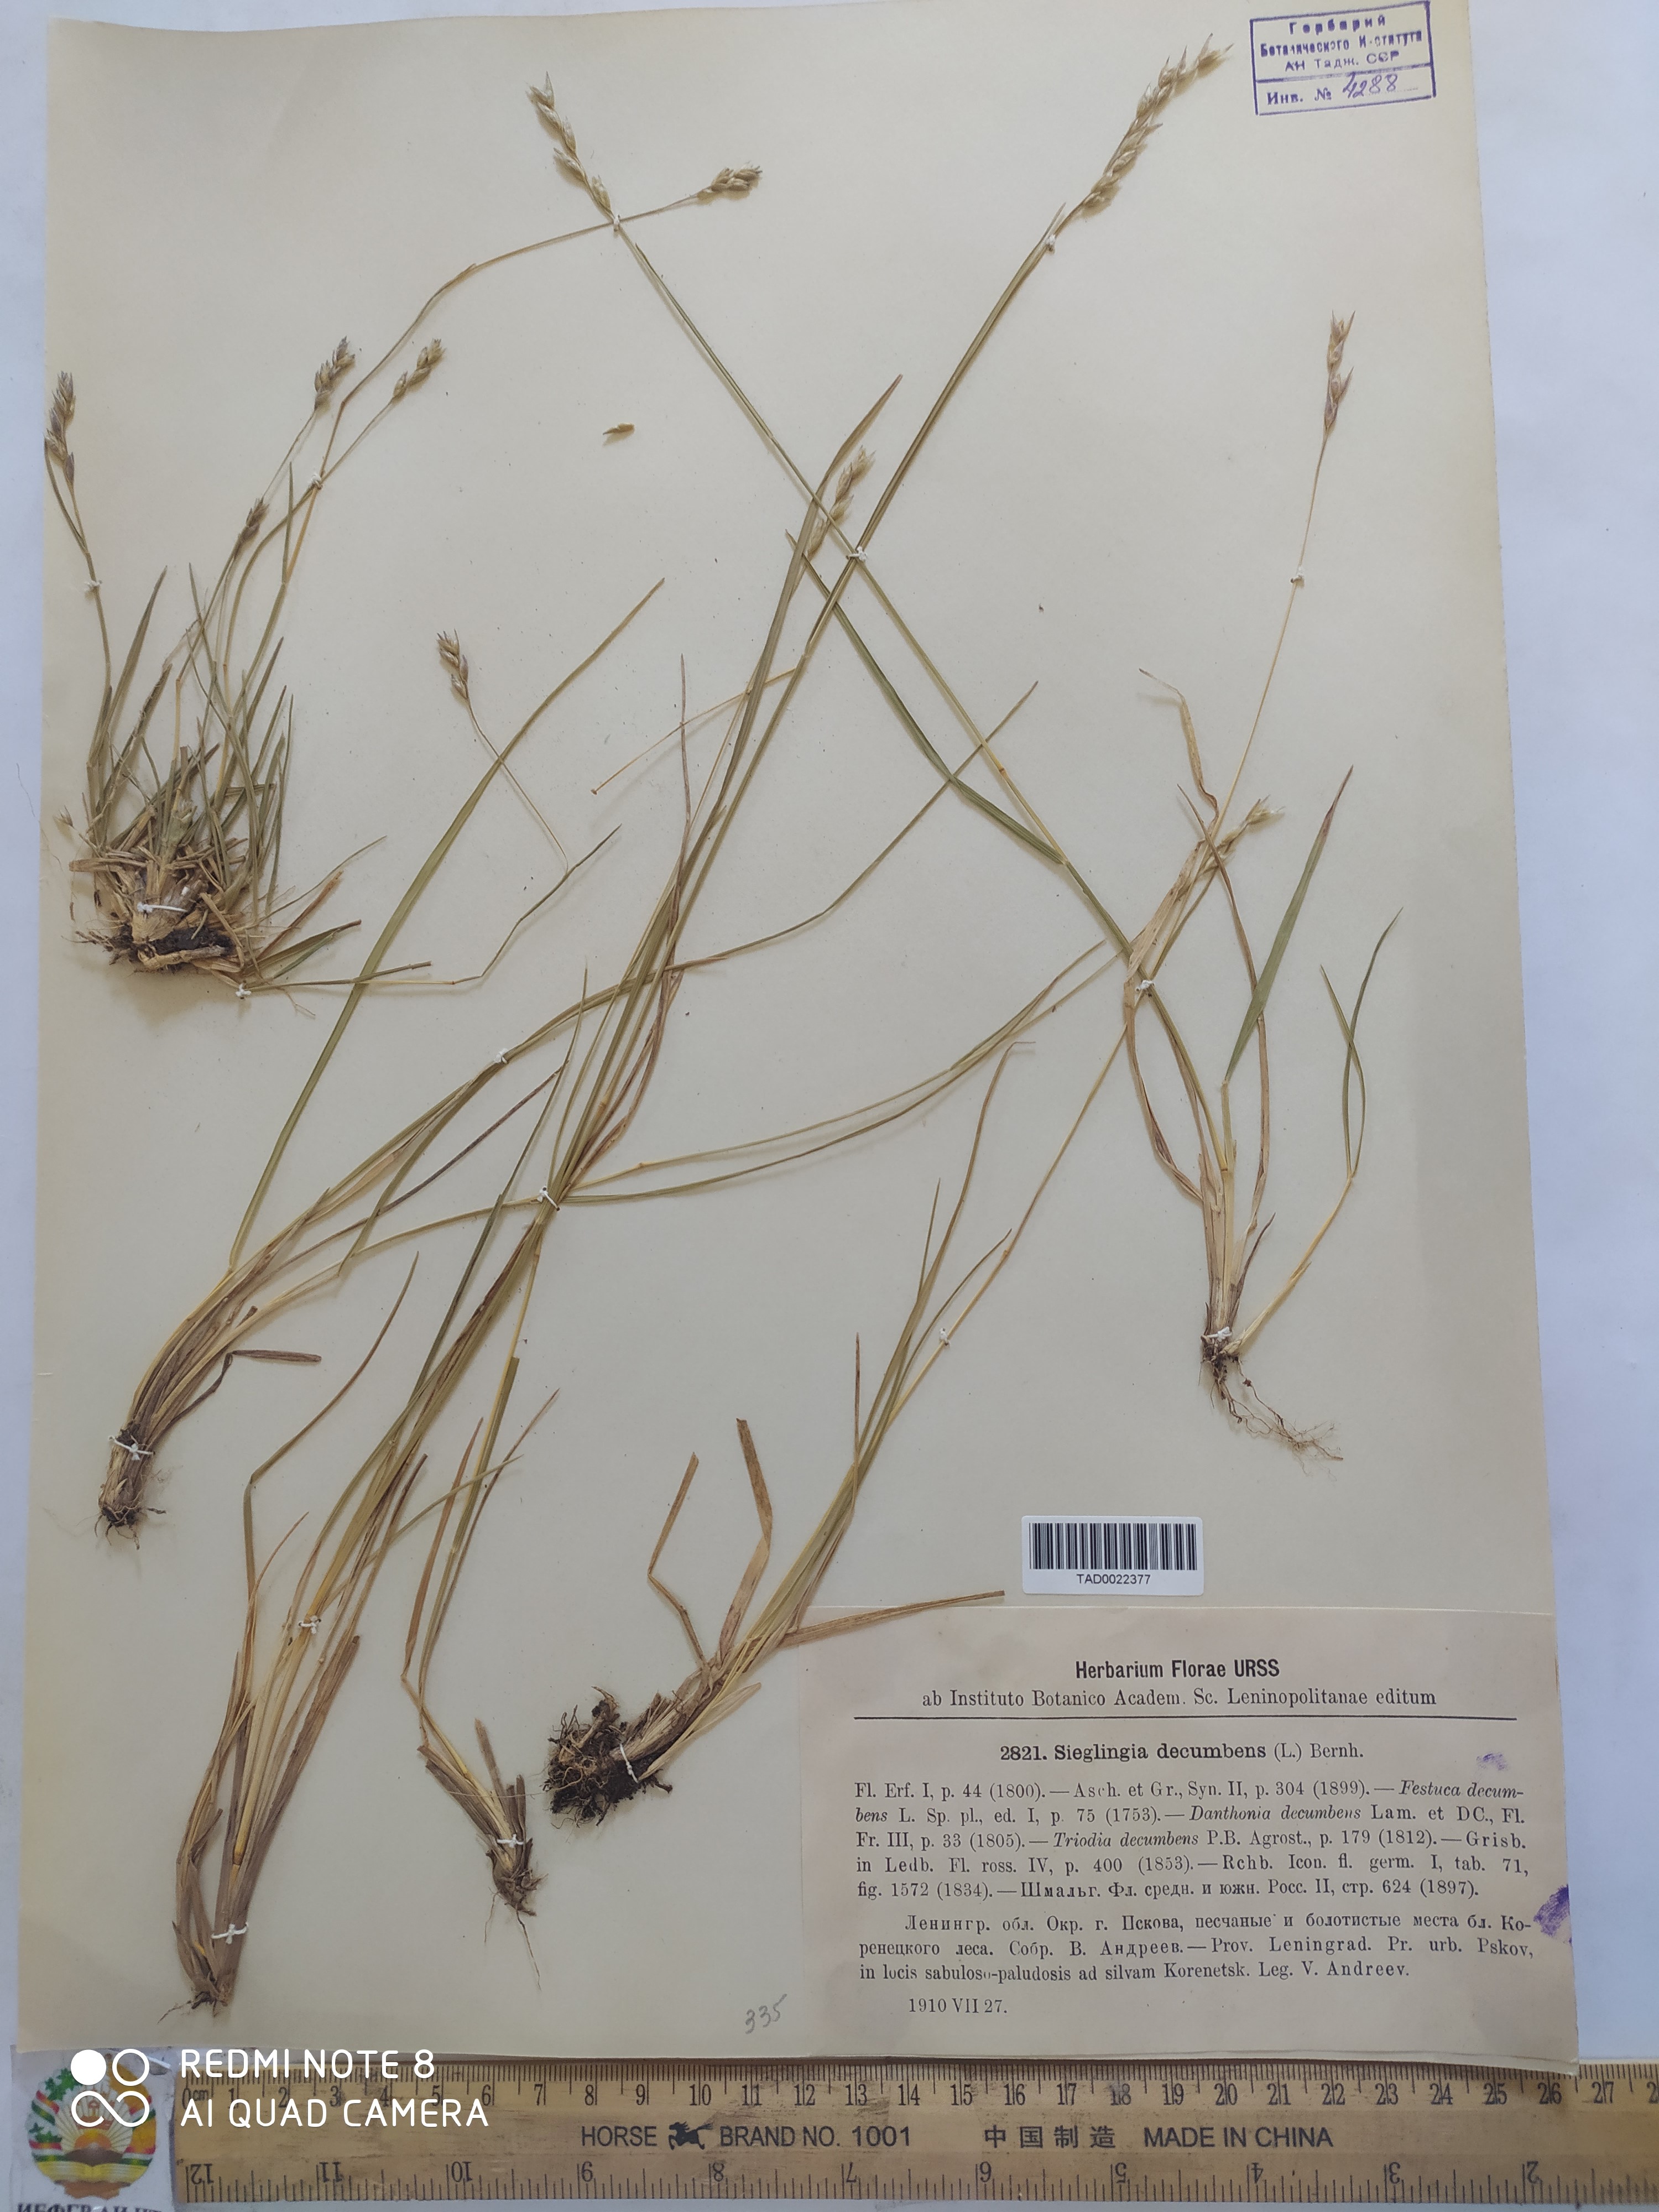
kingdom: Plantae
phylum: Tracheophyta
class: Liliopsida
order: Poales
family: Poaceae
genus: Danthonia
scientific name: Danthonia decumbens
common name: Common heathgrass
